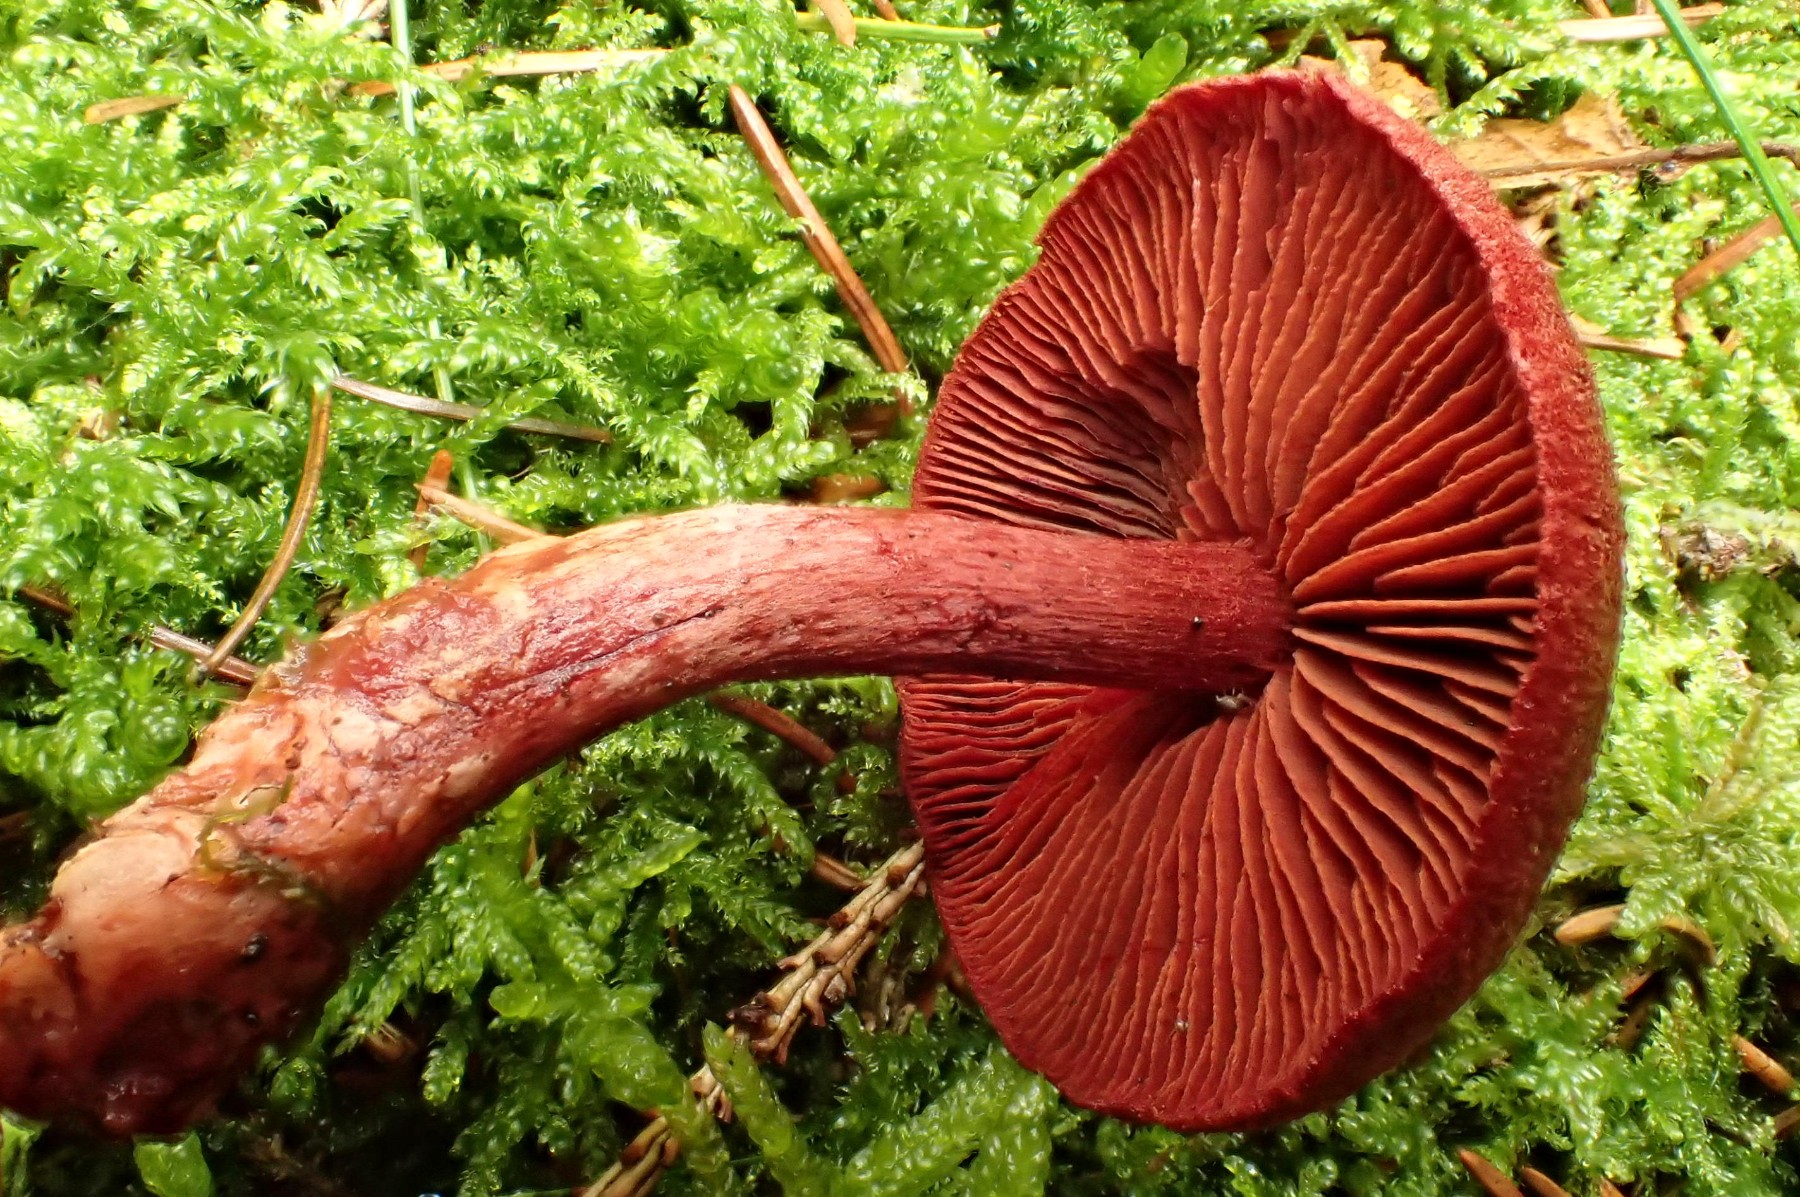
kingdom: Fungi
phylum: Basidiomycota
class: Agaricomycetes
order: Agaricales
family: Cortinariaceae
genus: Cortinarius
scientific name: Cortinarius sanguineus
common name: blodrød slørhat
